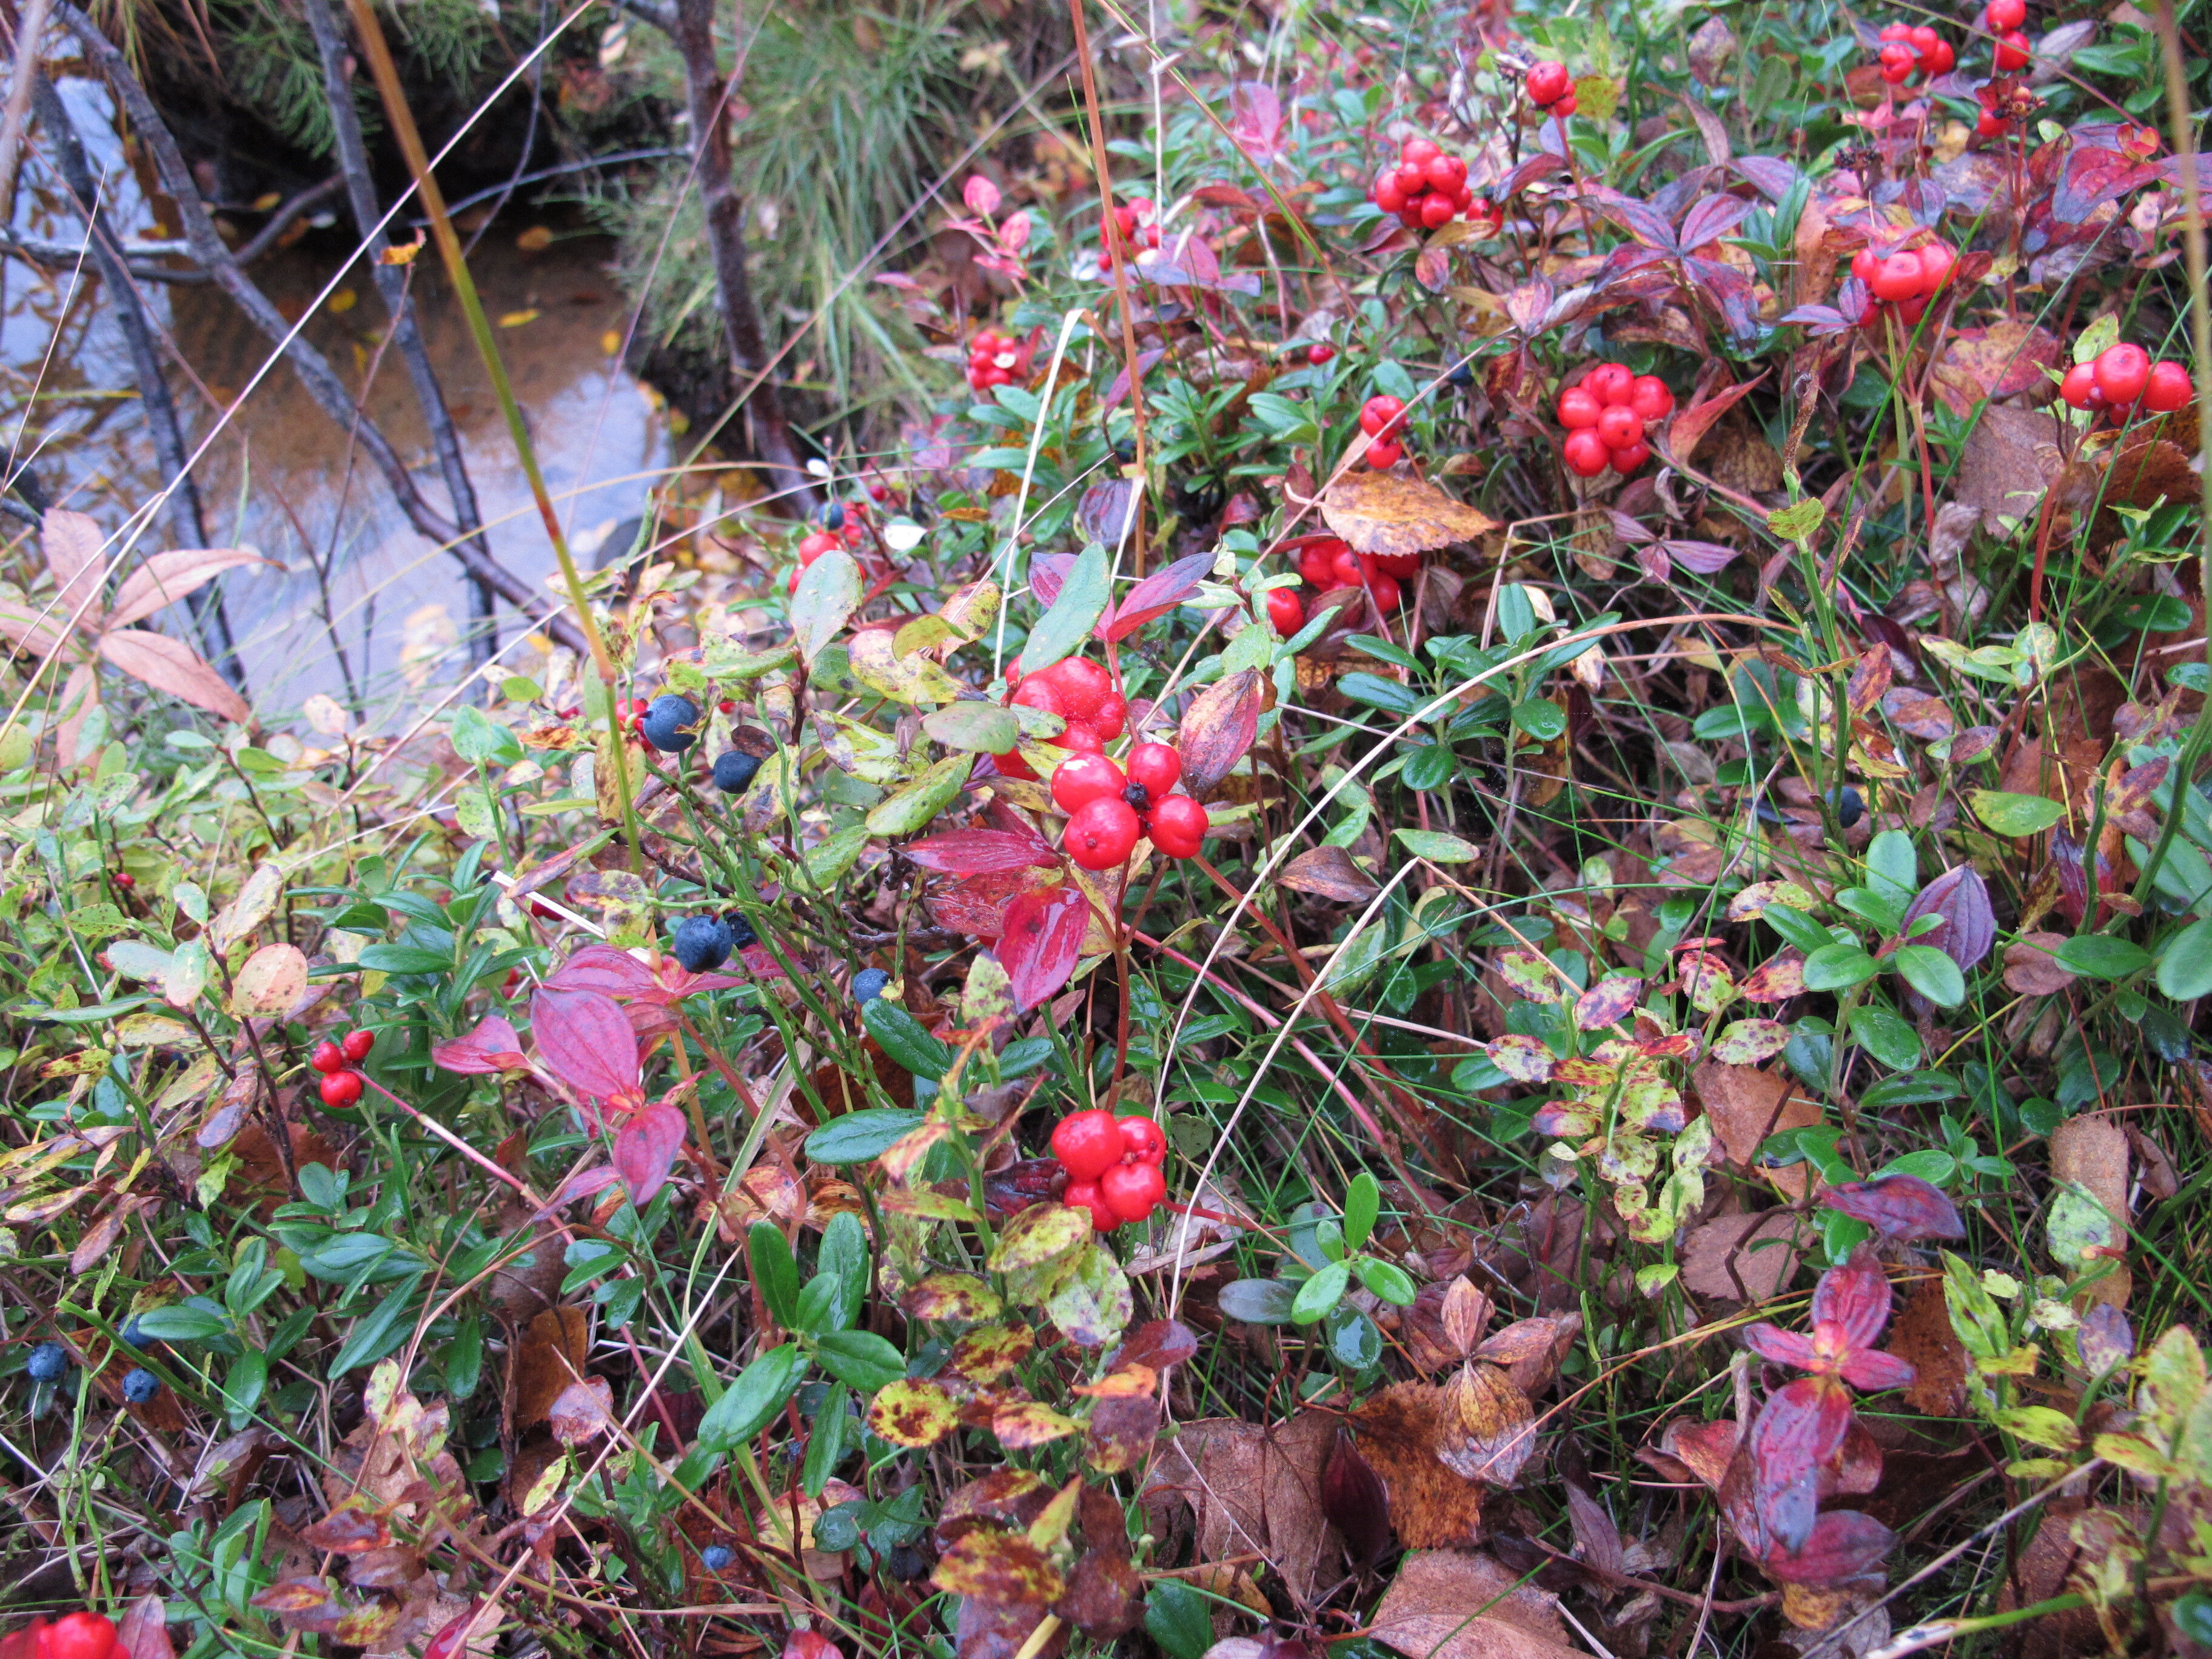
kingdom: Plantae
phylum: Tracheophyta
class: Magnoliopsida
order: Cornales
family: Cornaceae
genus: Cornus
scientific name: Cornus suecica
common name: Dwarf cornel
